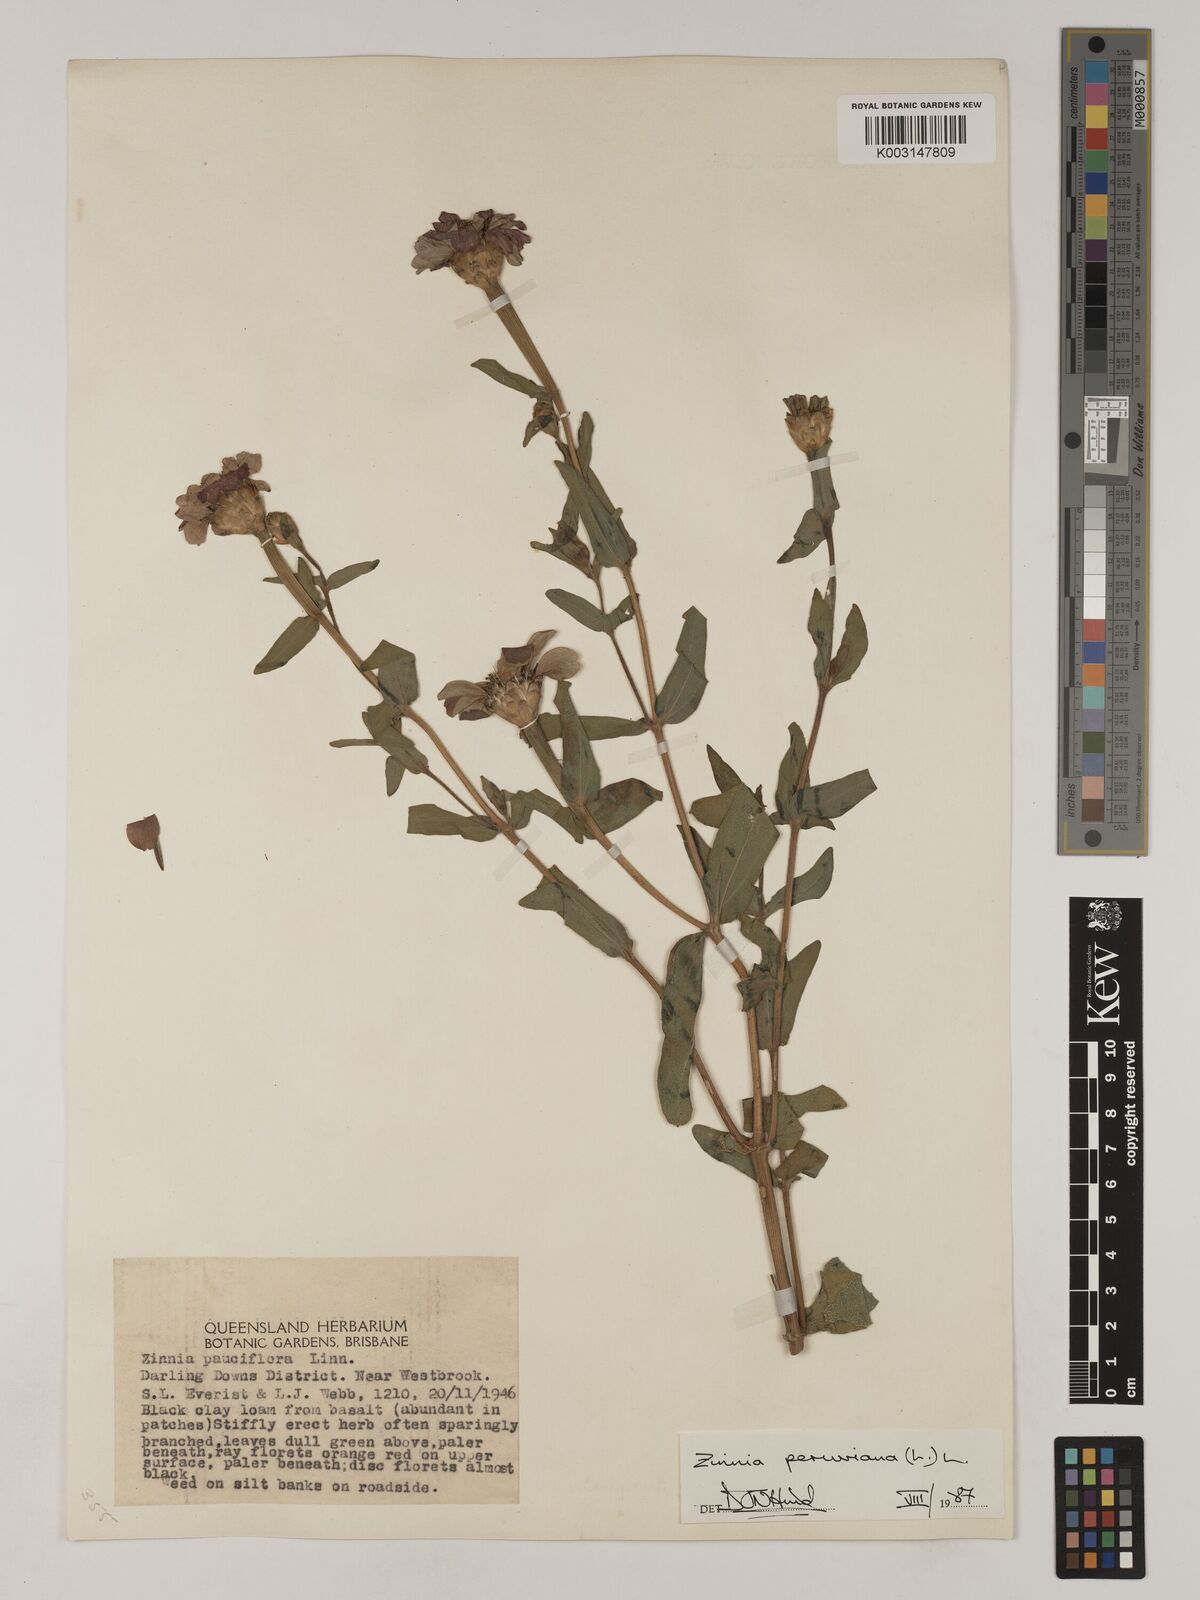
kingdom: Plantae
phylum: Tracheophyta
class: Magnoliopsida
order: Asterales
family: Asteraceae
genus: Zinnia
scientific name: Zinnia peruviana
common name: Peruvian zinnia
